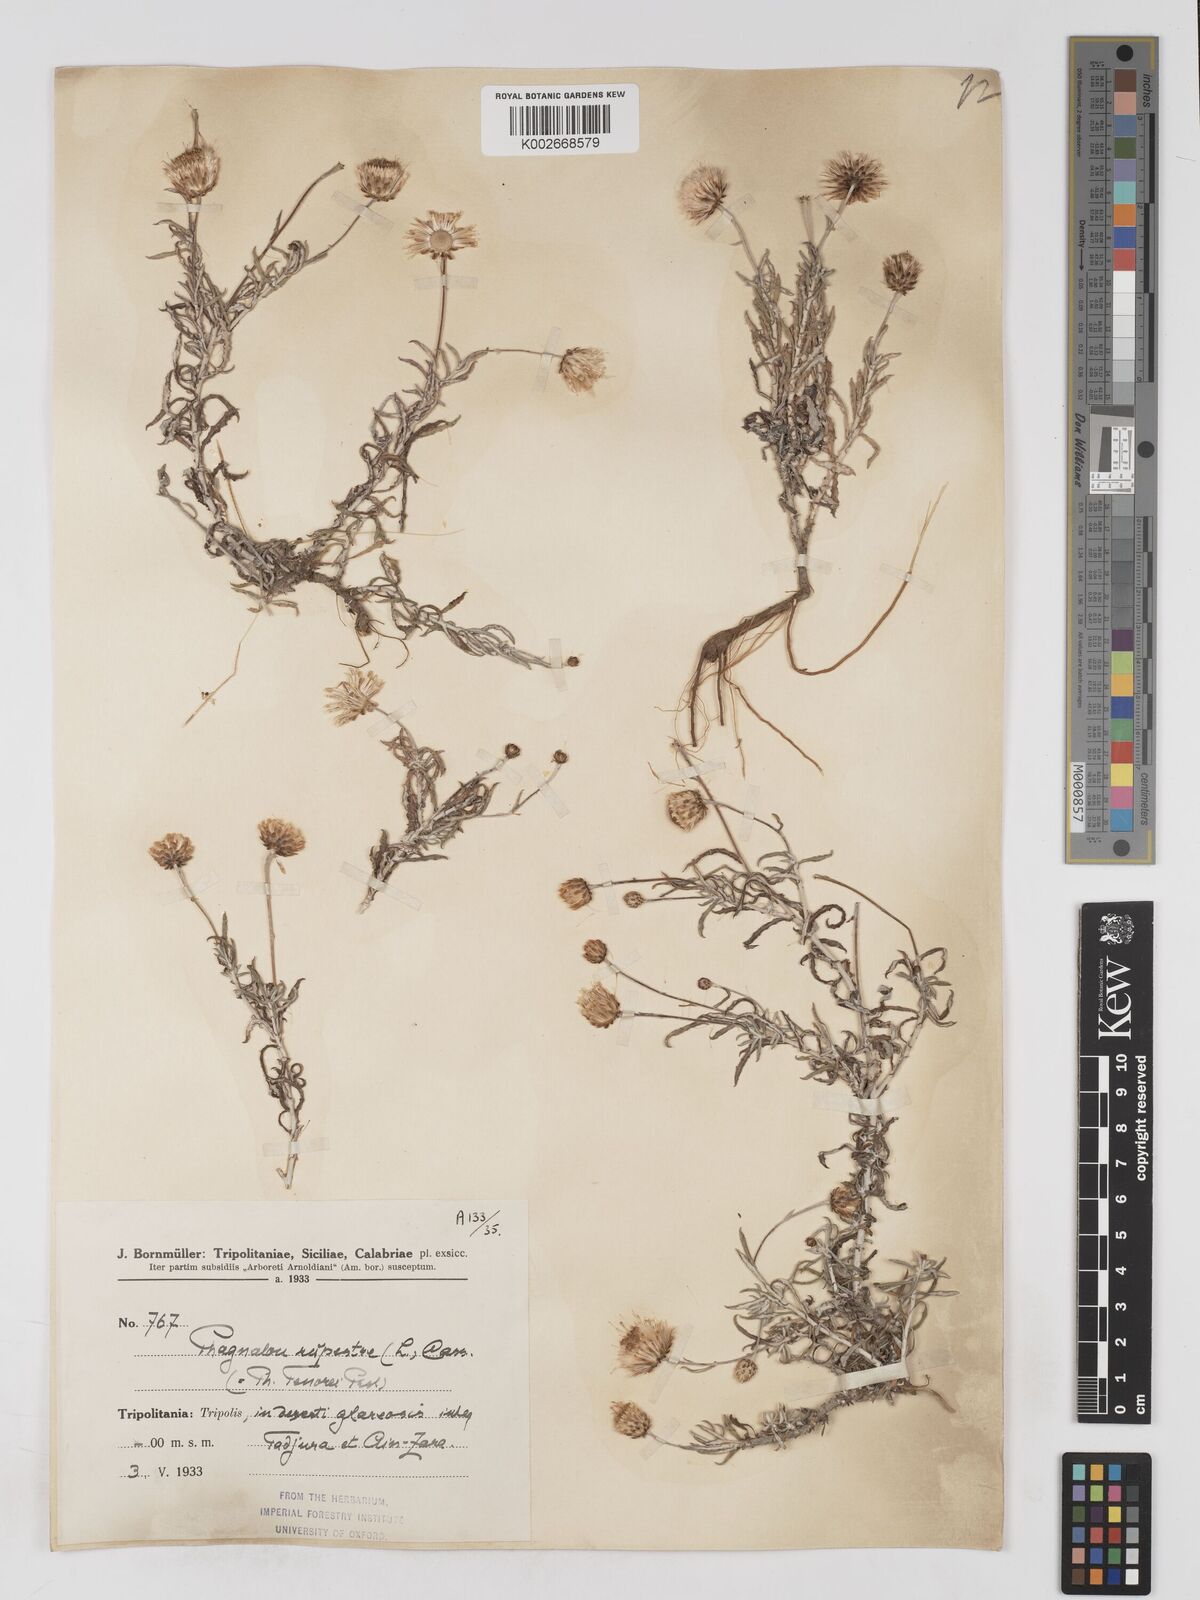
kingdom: Plantae
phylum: Tracheophyta
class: Magnoliopsida
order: Asterales
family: Asteraceae
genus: Phagnalon
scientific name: Phagnalon rupestre
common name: Rock phagnalon
